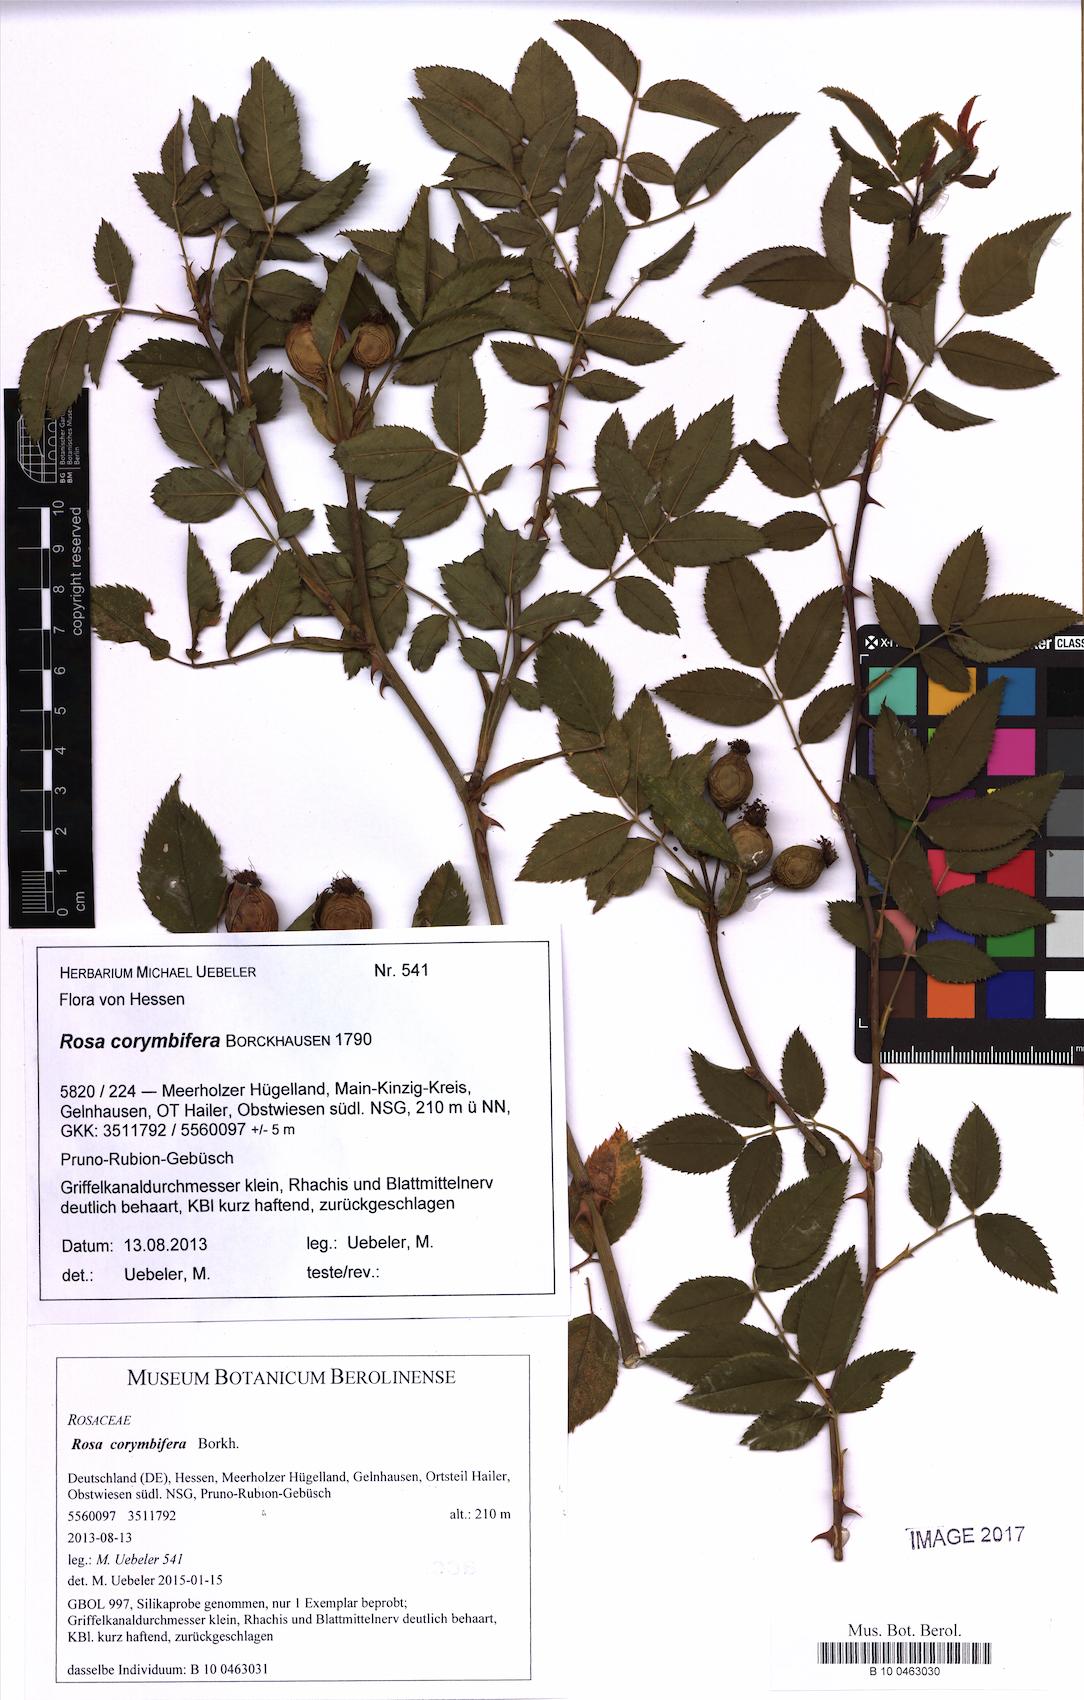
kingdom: Plantae
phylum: Tracheophyta
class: Magnoliopsida
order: Rosales
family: Rosaceae
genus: Rosa
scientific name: Rosa corymbifera
